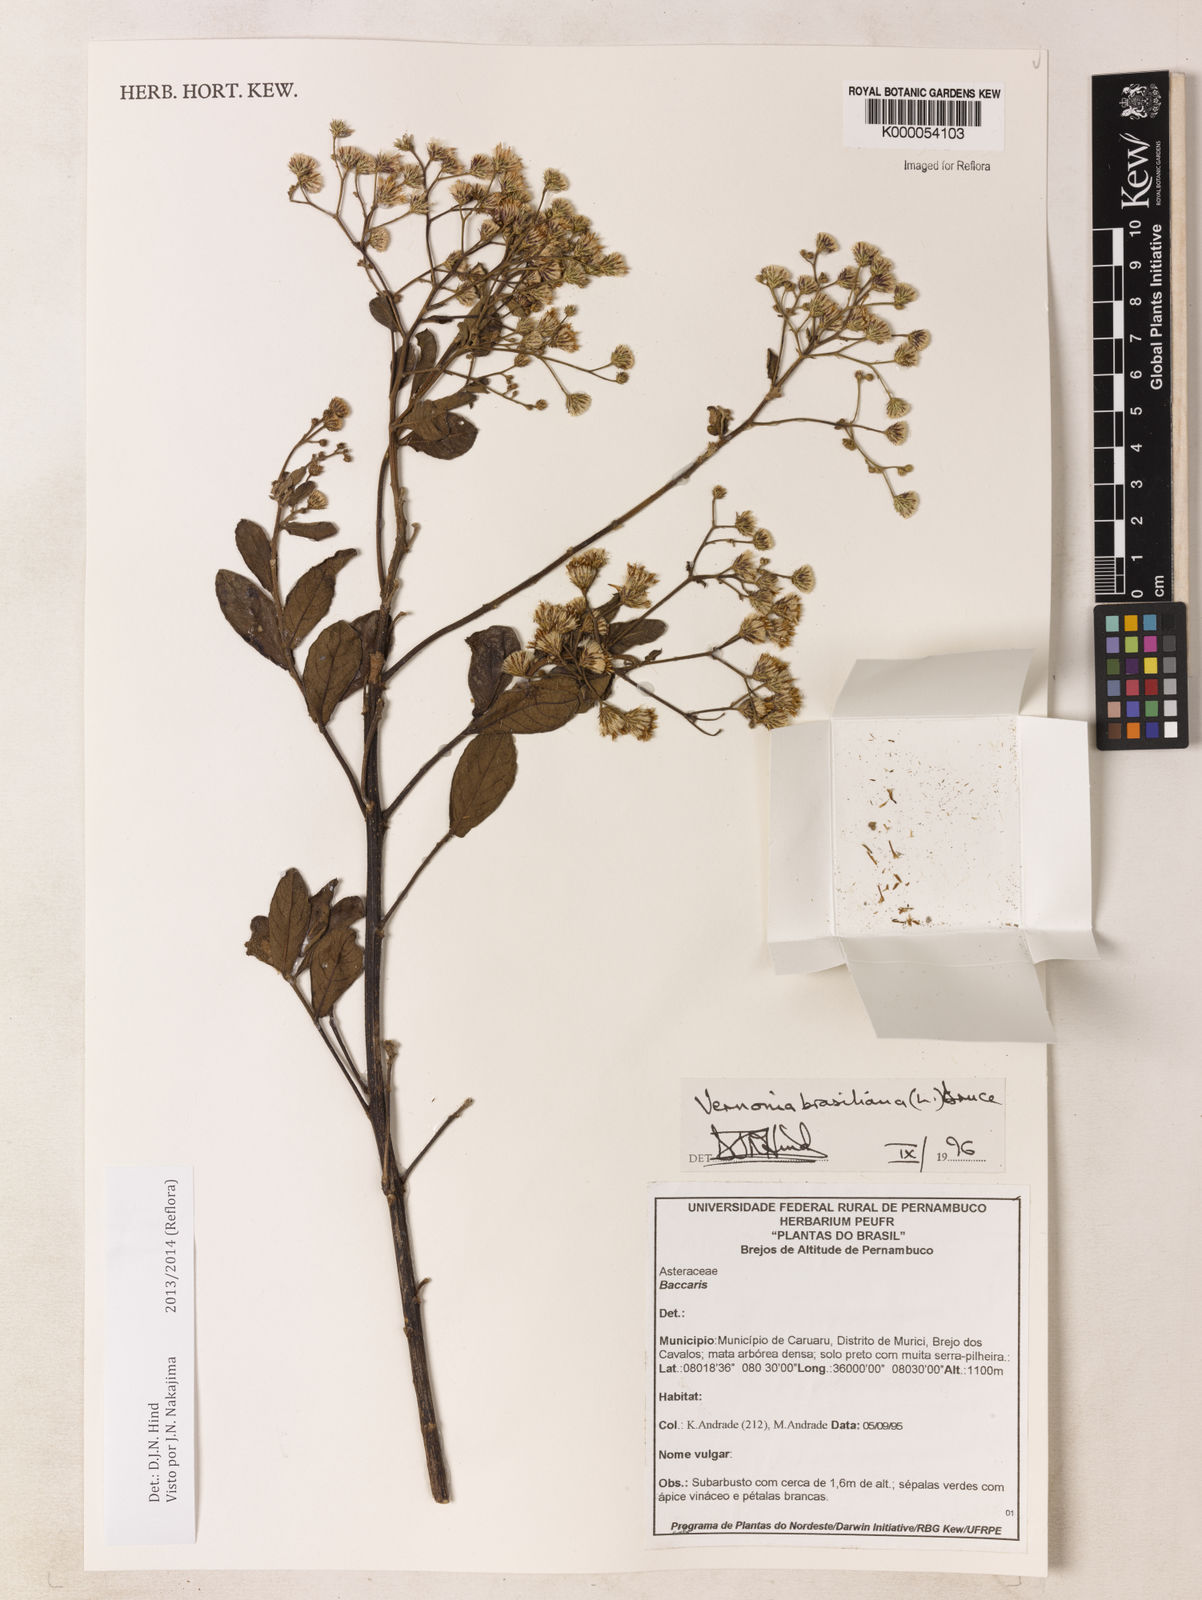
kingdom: Plantae
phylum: Tracheophyta
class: Magnoliopsida
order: Asterales
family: Asteraceae
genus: Vernonanthura
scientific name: Vernonanthura brasiliana
